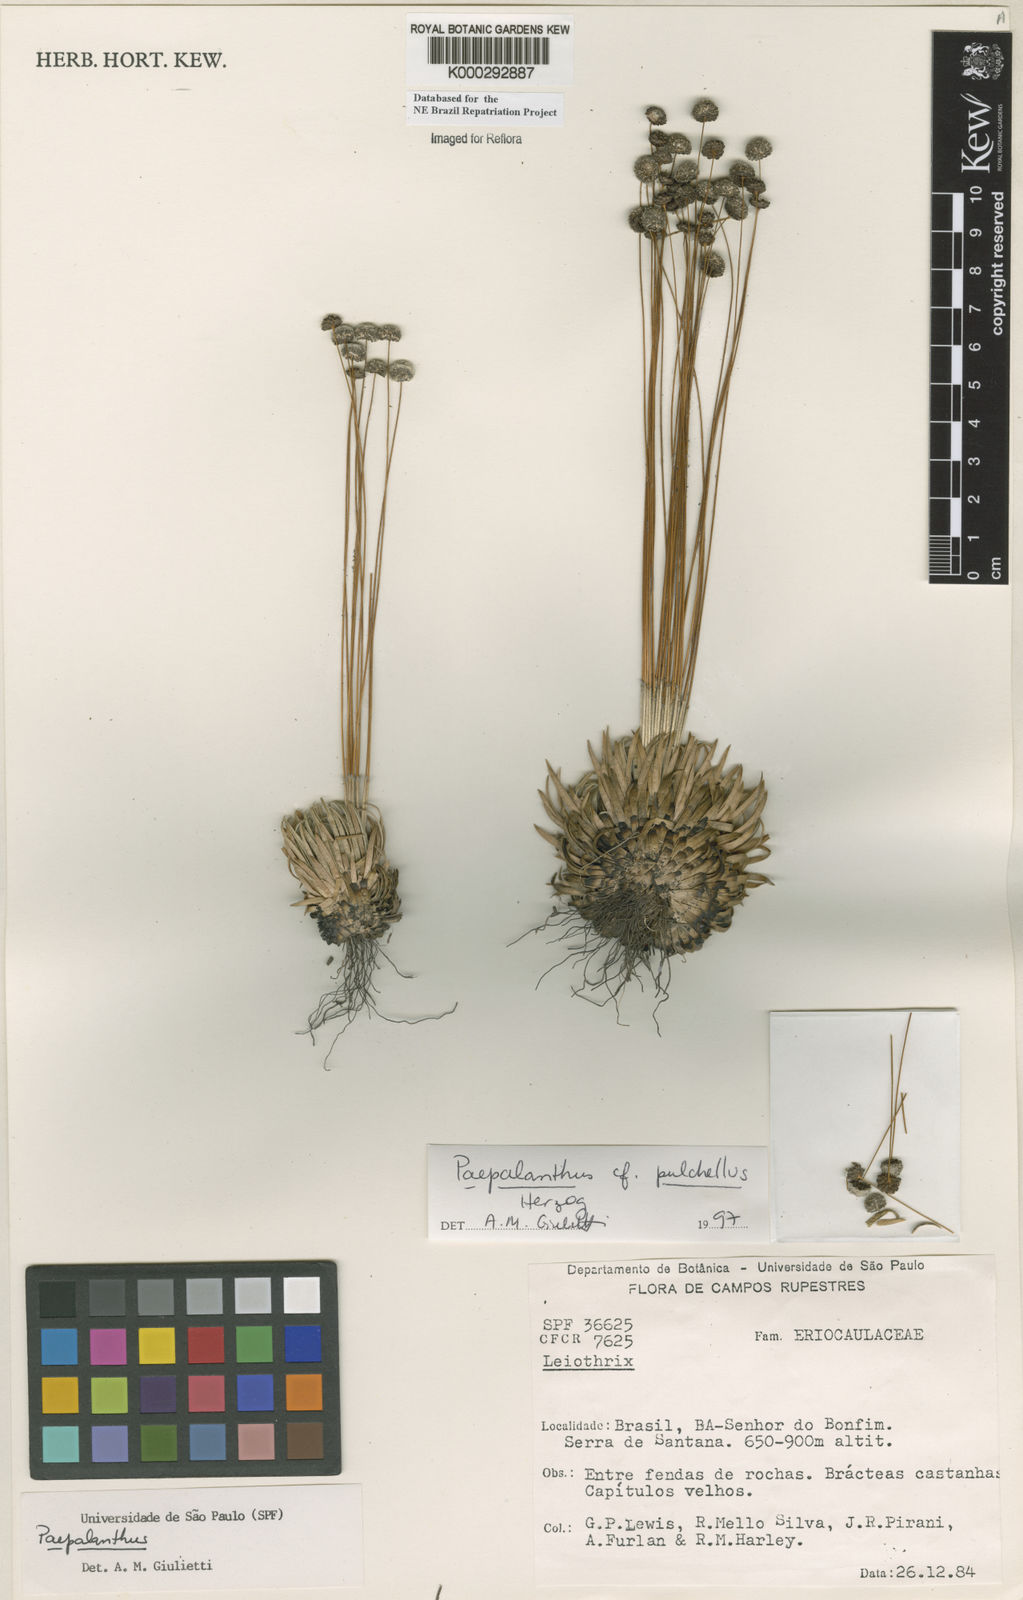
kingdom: Plantae
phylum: Tracheophyta
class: Liliopsida
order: Poales
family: Eriocaulaceae
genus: Paepalanthus
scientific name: Paepalanthus pulchellus
